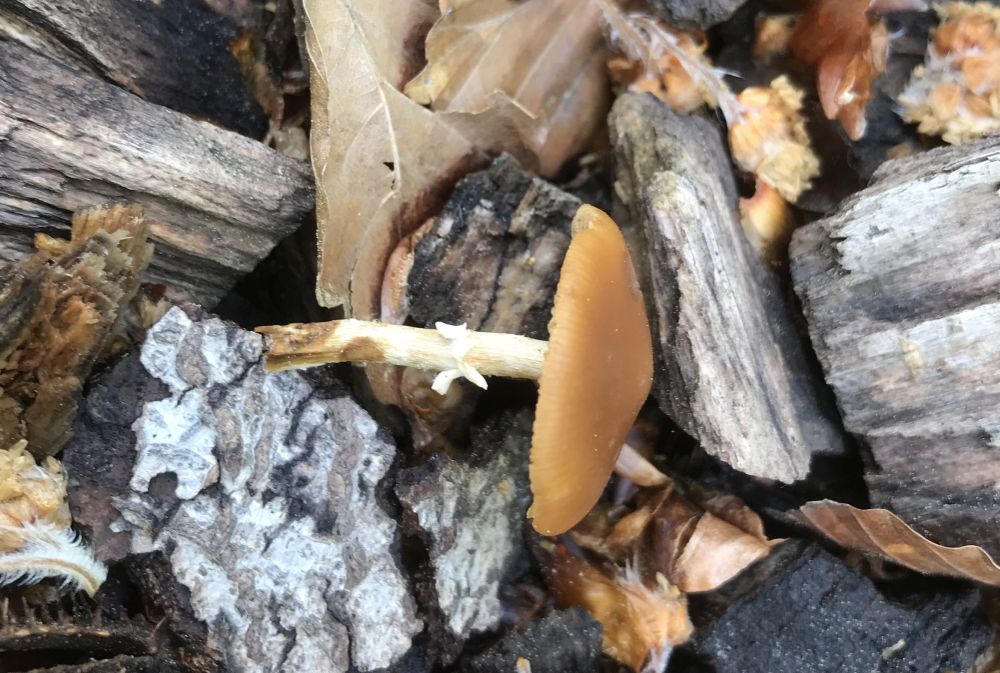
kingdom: Fungi
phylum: Basidiomycota
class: Agaricomycetes
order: Agaricales
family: Bolbitiaceae
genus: Conocybe
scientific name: Conocybe aporos
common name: tidlig dansehat
